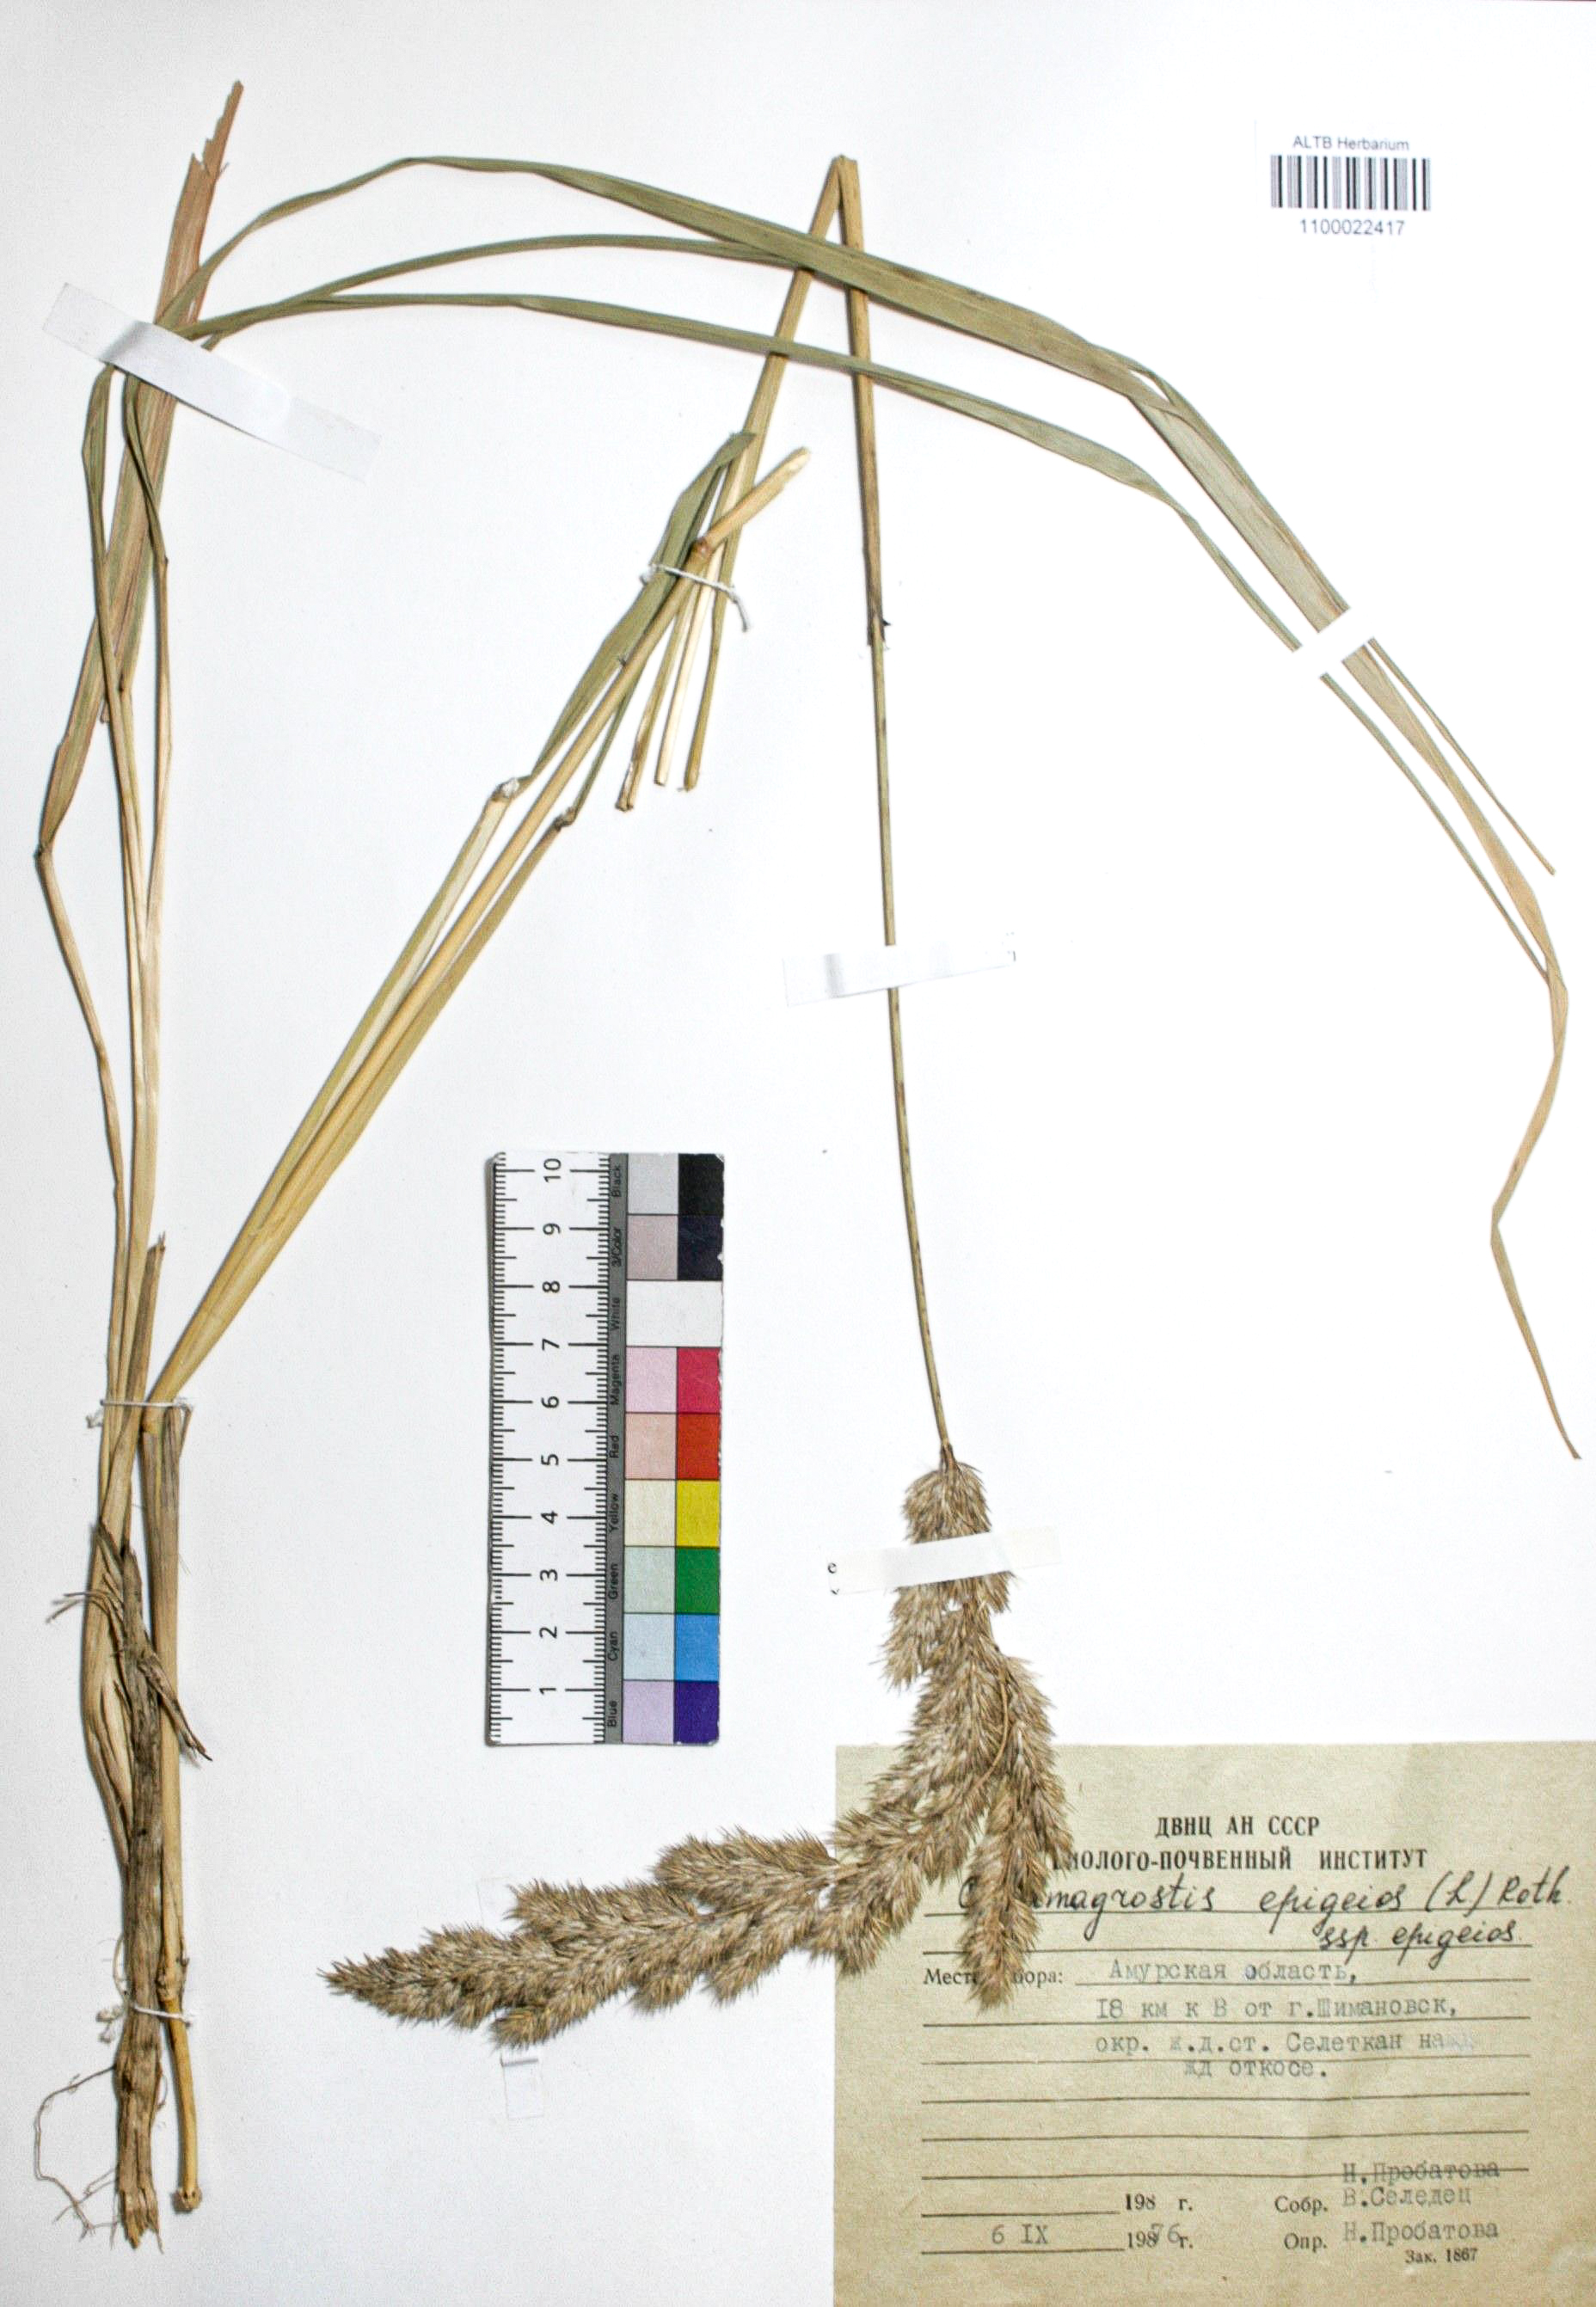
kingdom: Plantae
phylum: Tracheophyta
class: Liliopsida
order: Poales
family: Poaceae
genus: Calamagrostis
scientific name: Calamagrostis epigejos
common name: Wood small-reed
